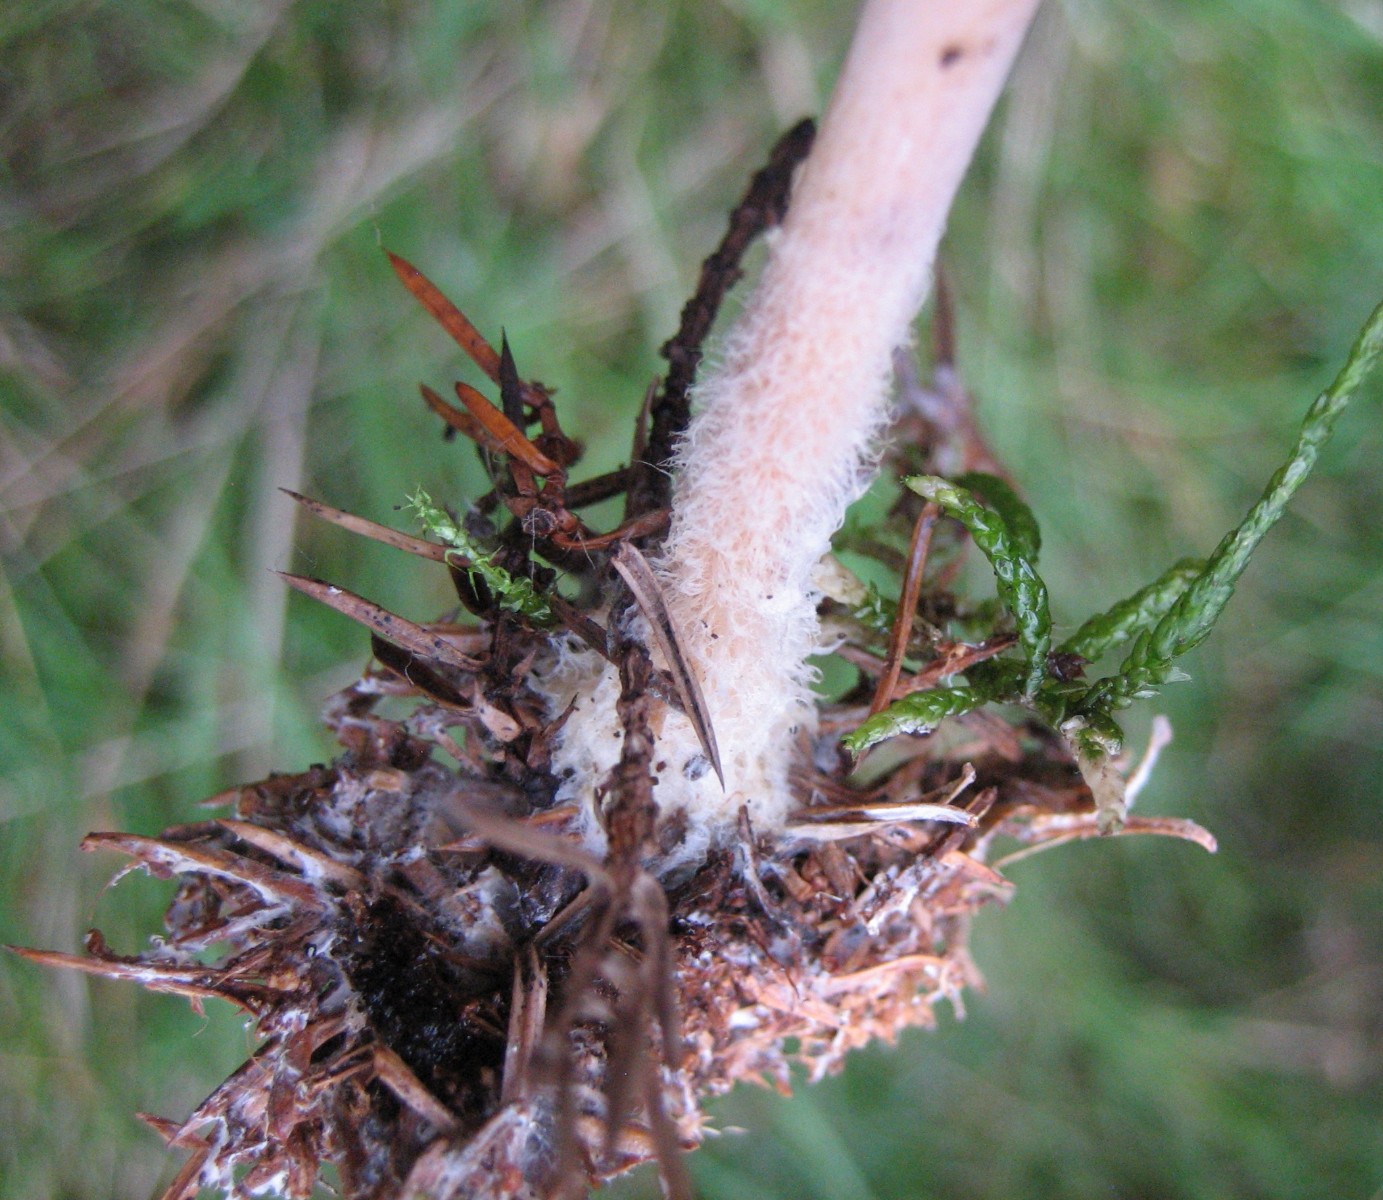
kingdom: Fungi
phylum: Basidiomycota
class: Agaricomycetes
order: Agaricales
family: Omphalotaceae
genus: Collybiopsis
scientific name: Collybiopsis peronata
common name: bestøvlet fladhat
